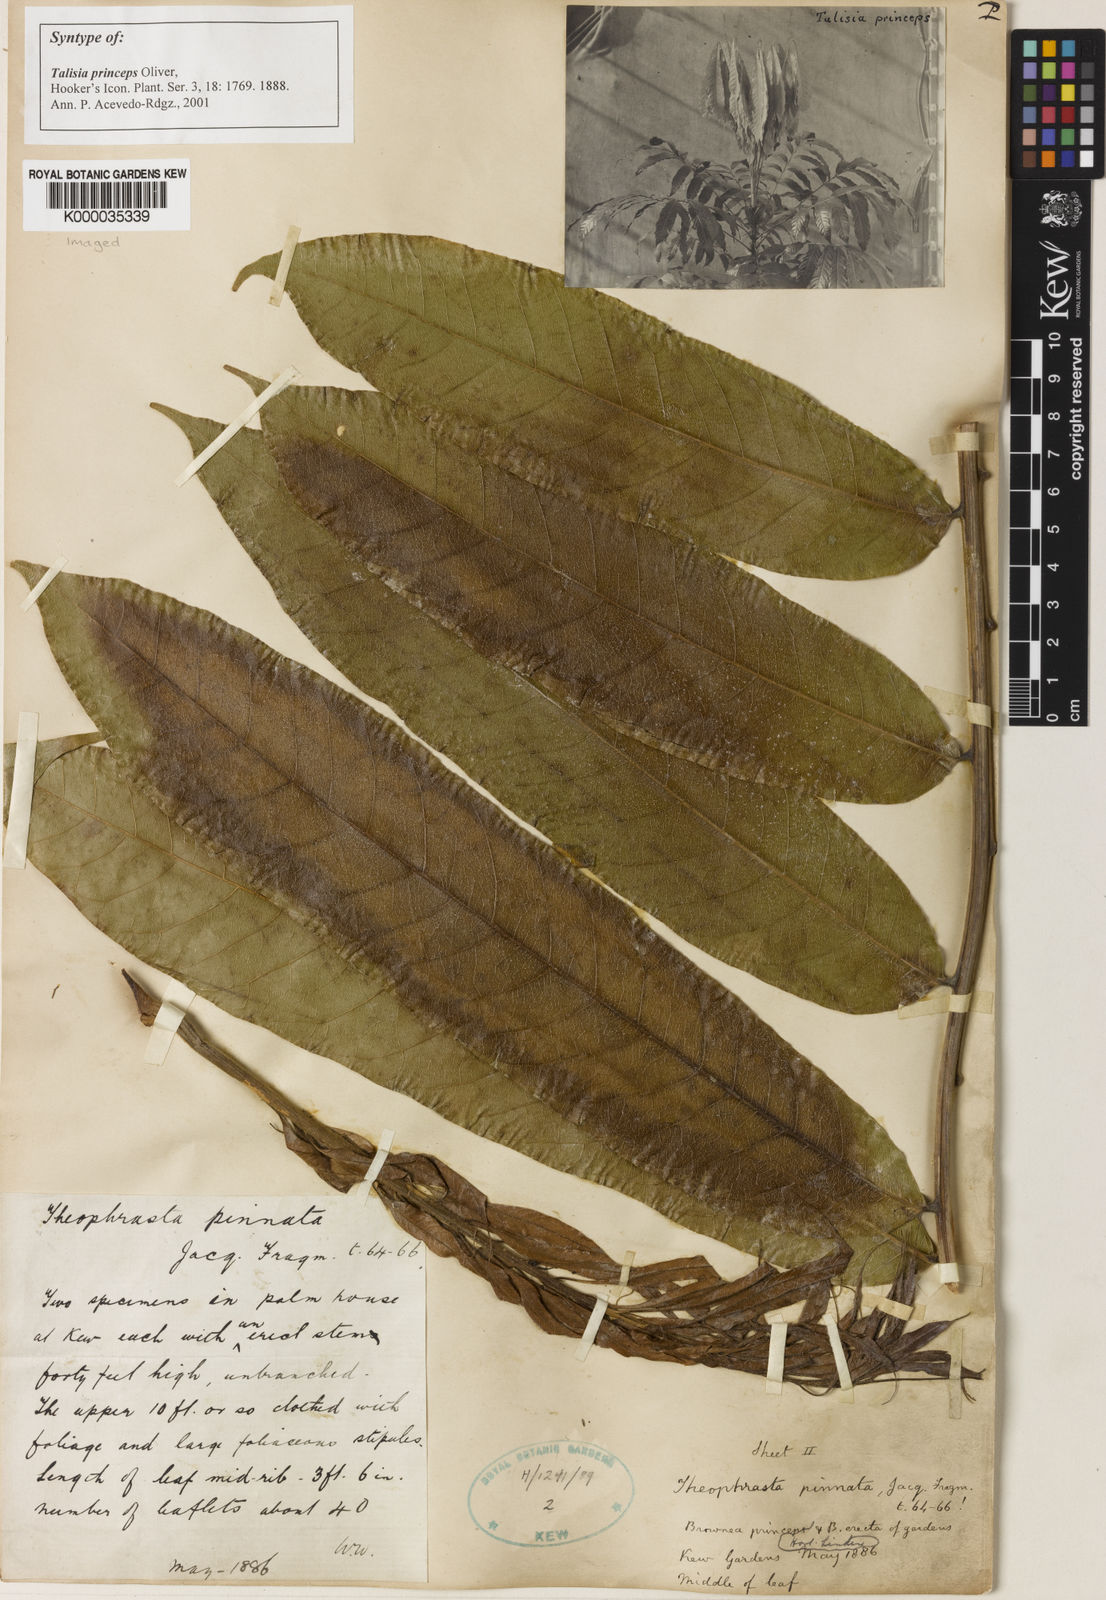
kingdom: Plantae
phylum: Tracheophyta
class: Magnoliopsida
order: Sapindales
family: Sapindaceae
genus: Talisia
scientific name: Talisia princeps
